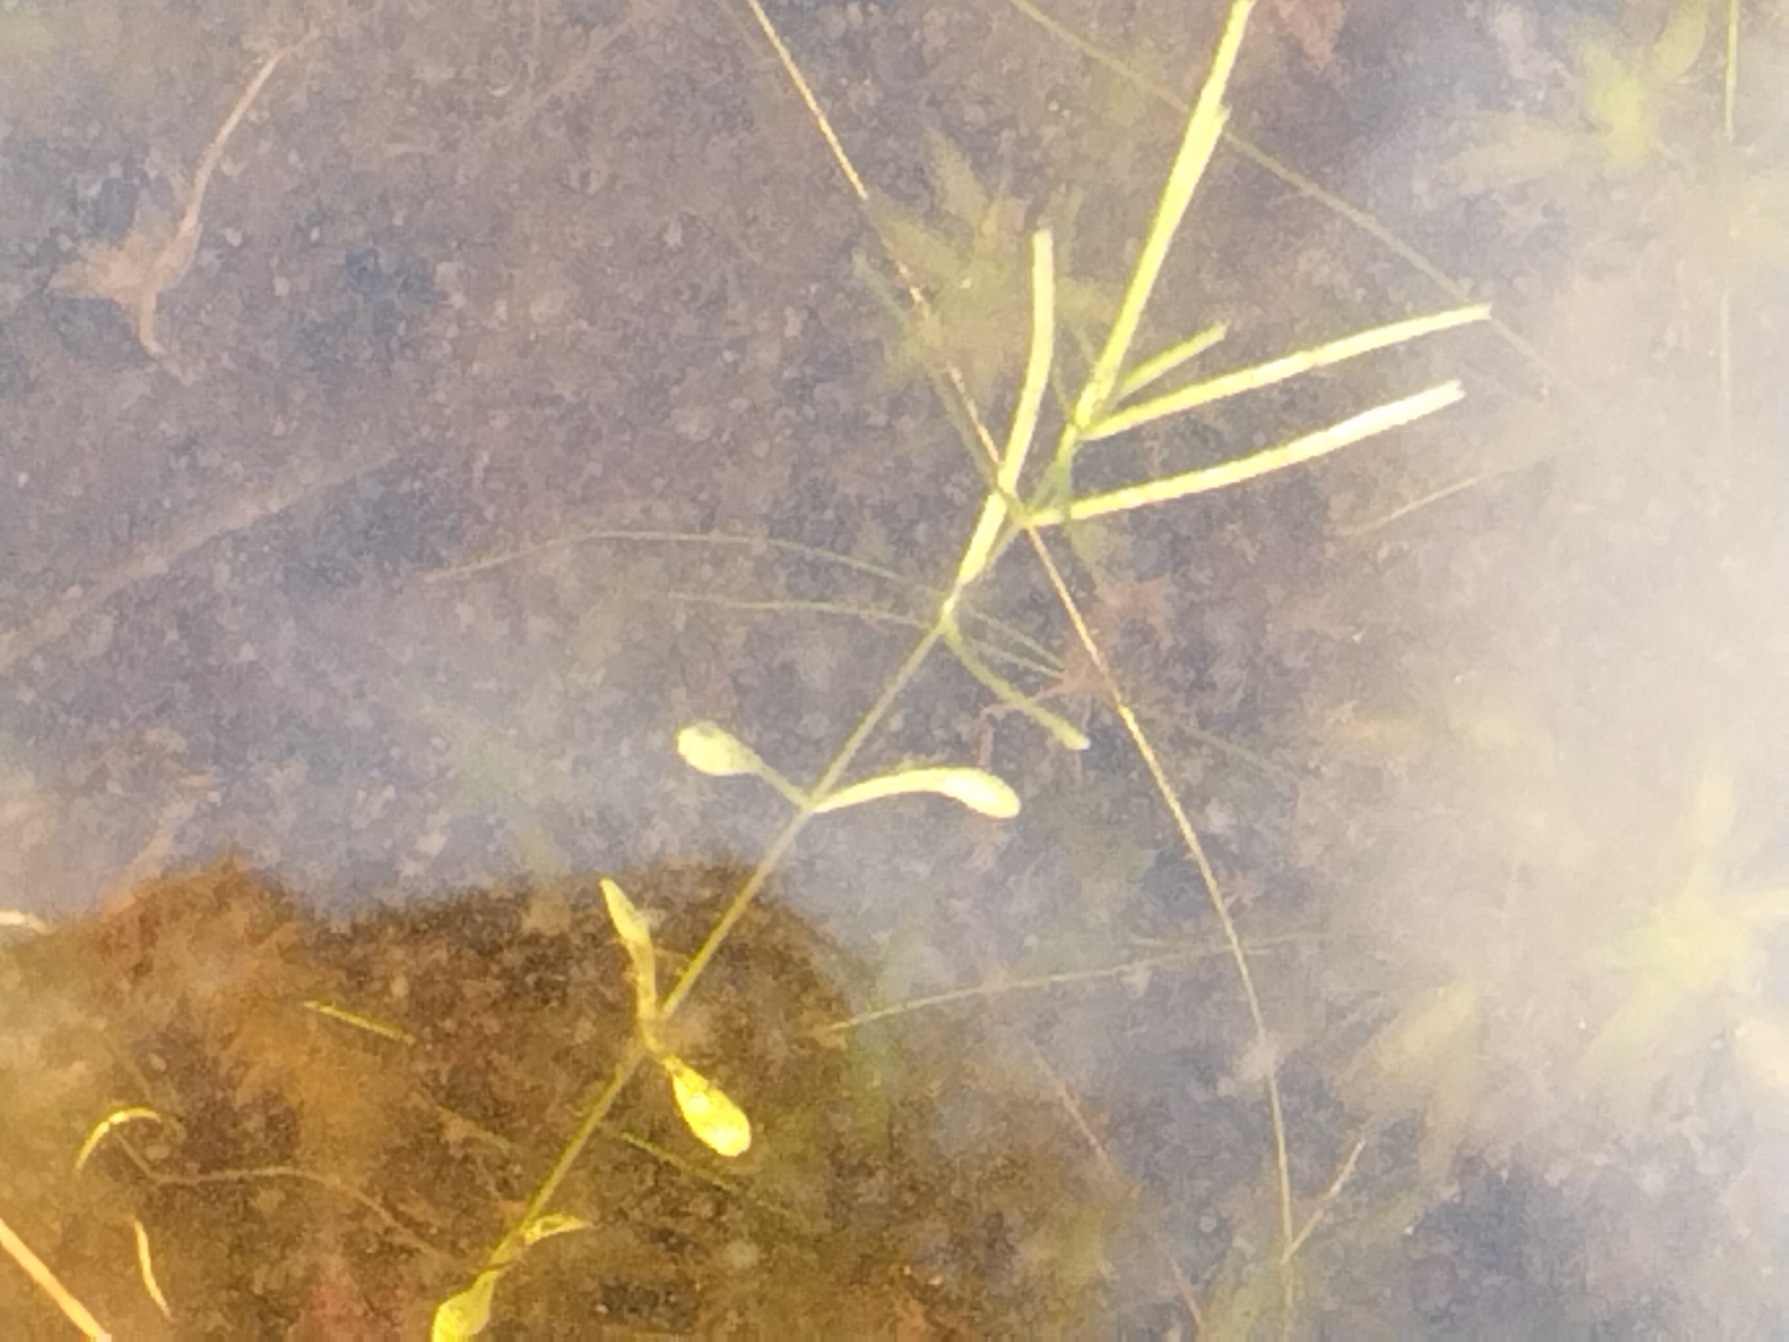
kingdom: Plantae
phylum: Tracheophyta
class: Magnoliopsida
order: Lamiales
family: Plantaginaceae
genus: Callitriche
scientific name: Callitriche hamulata
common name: Smalbladet vandstjerne
